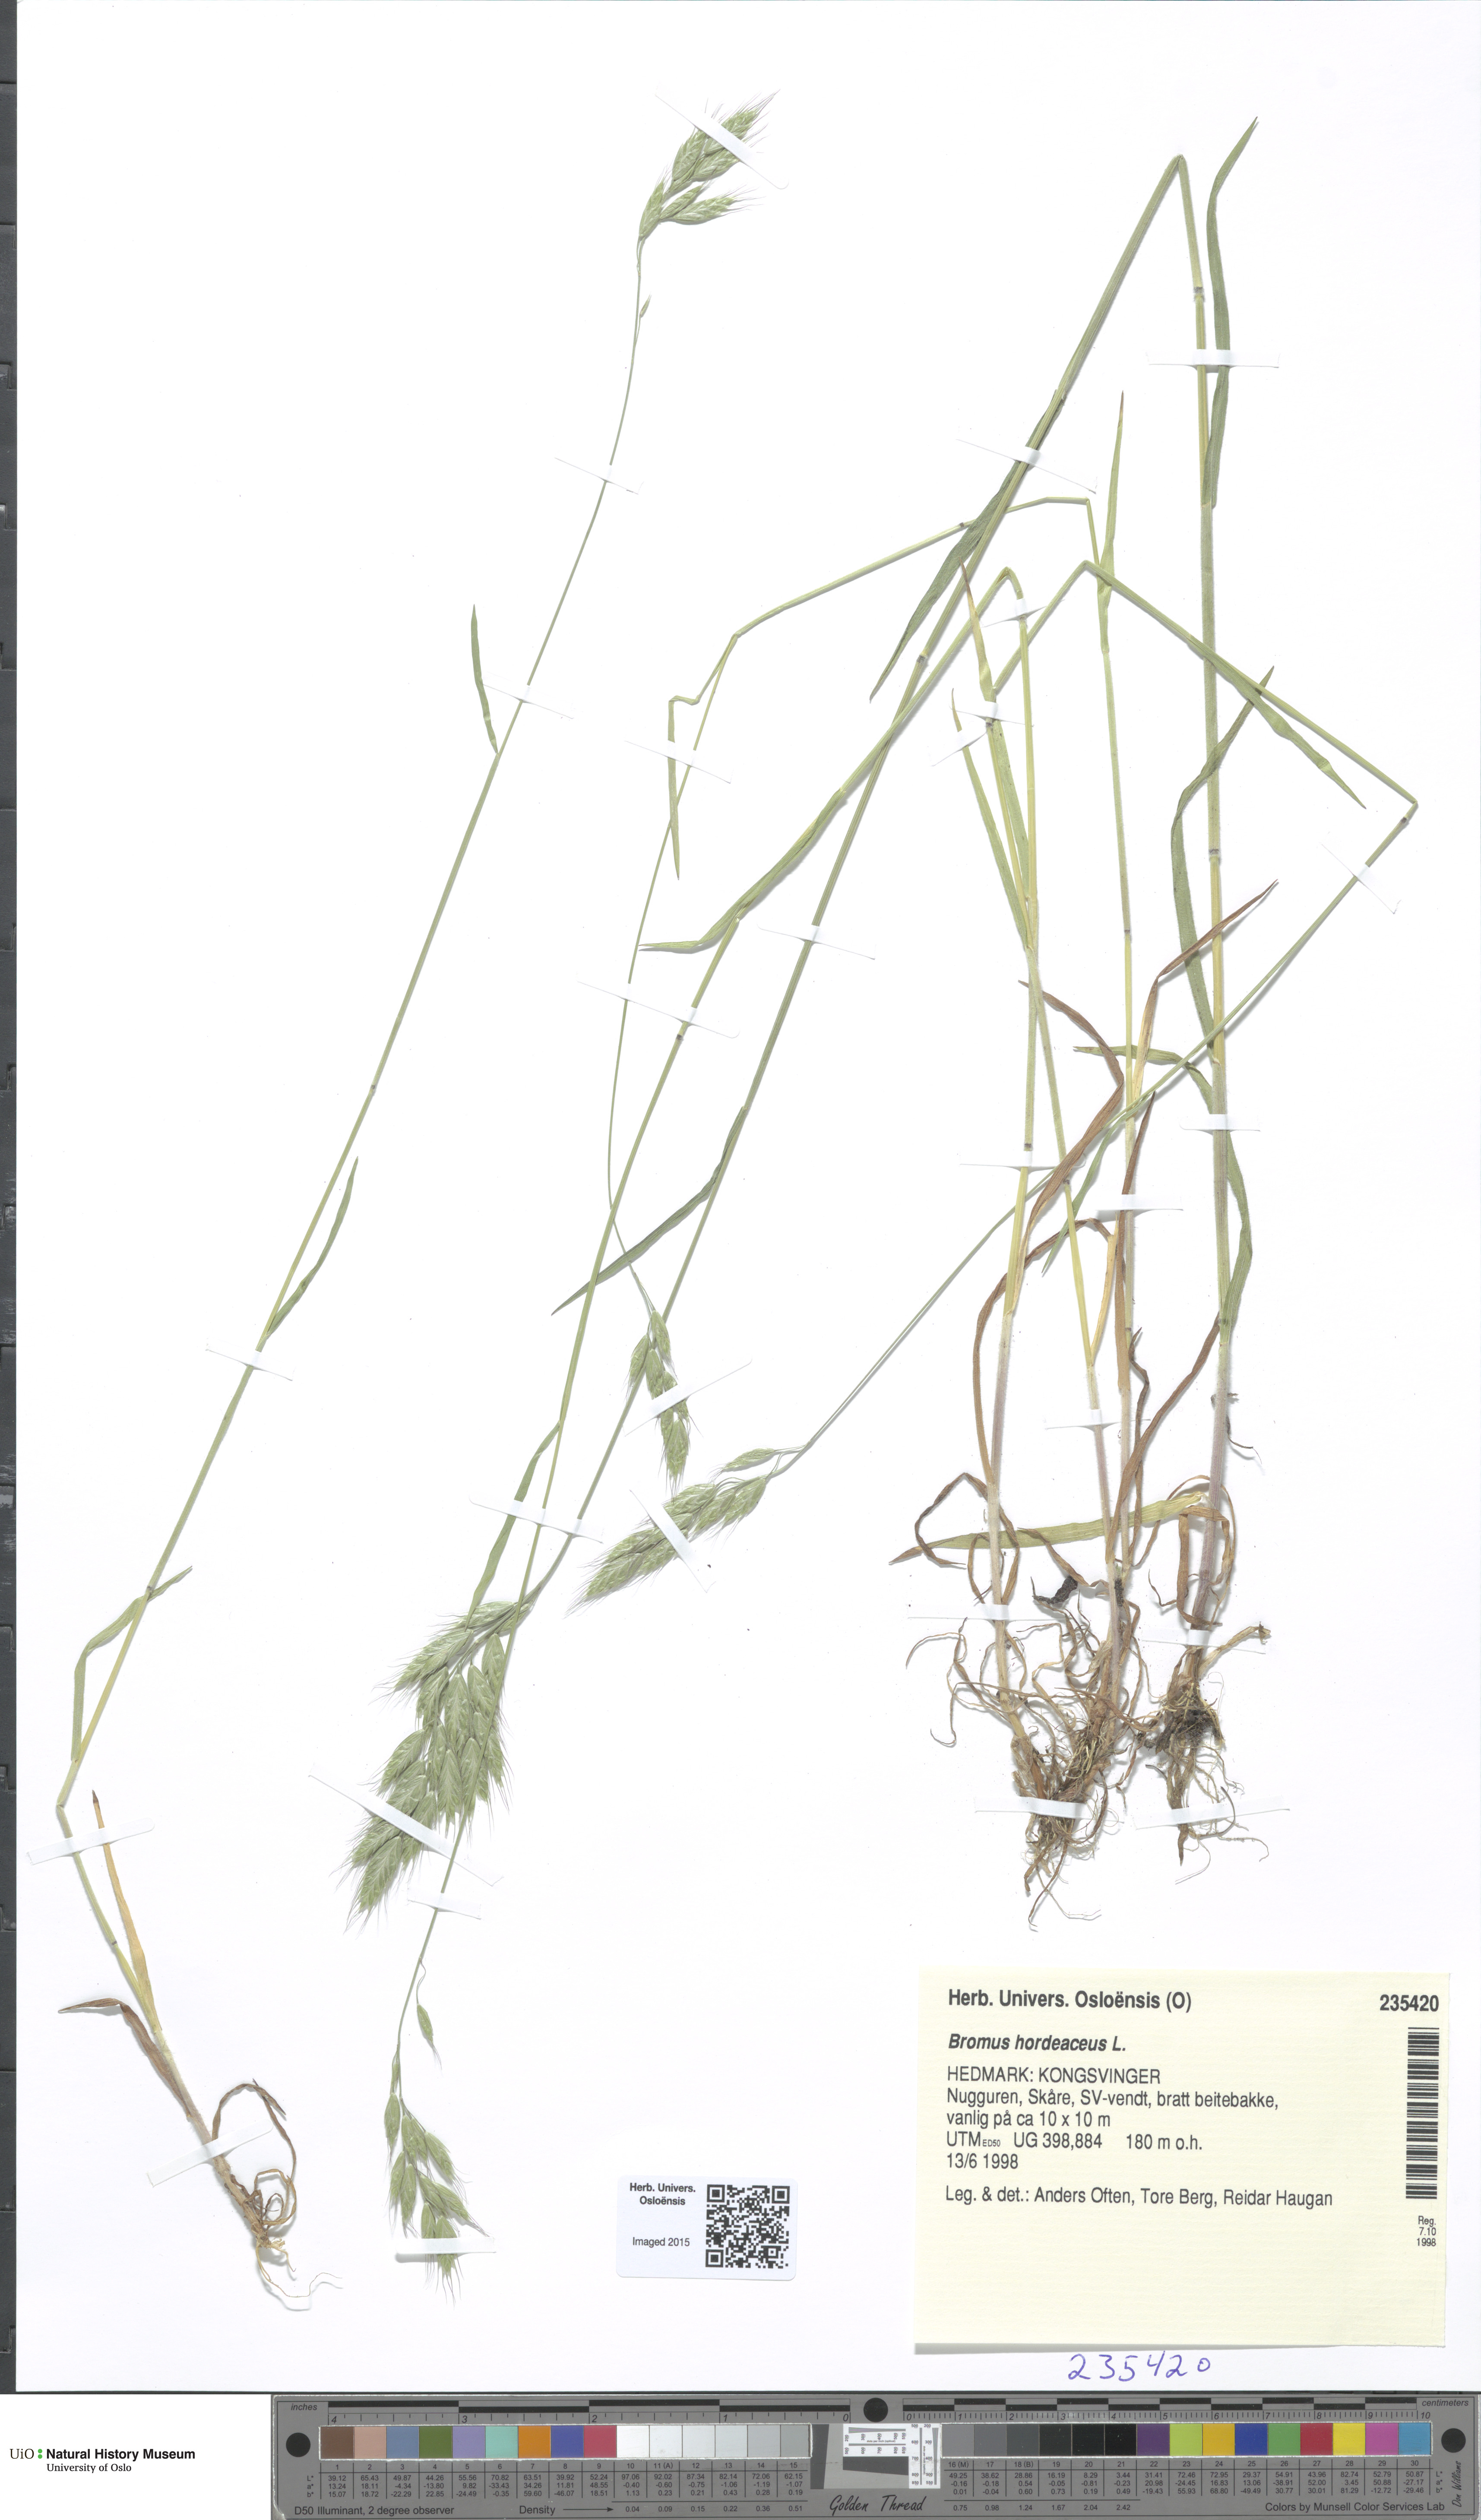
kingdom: Plantae
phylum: Tracheophyta
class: Liliopsida
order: Poales
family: Poaceae
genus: Bromus
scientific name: Bromus hordeaceus
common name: Soft brome
